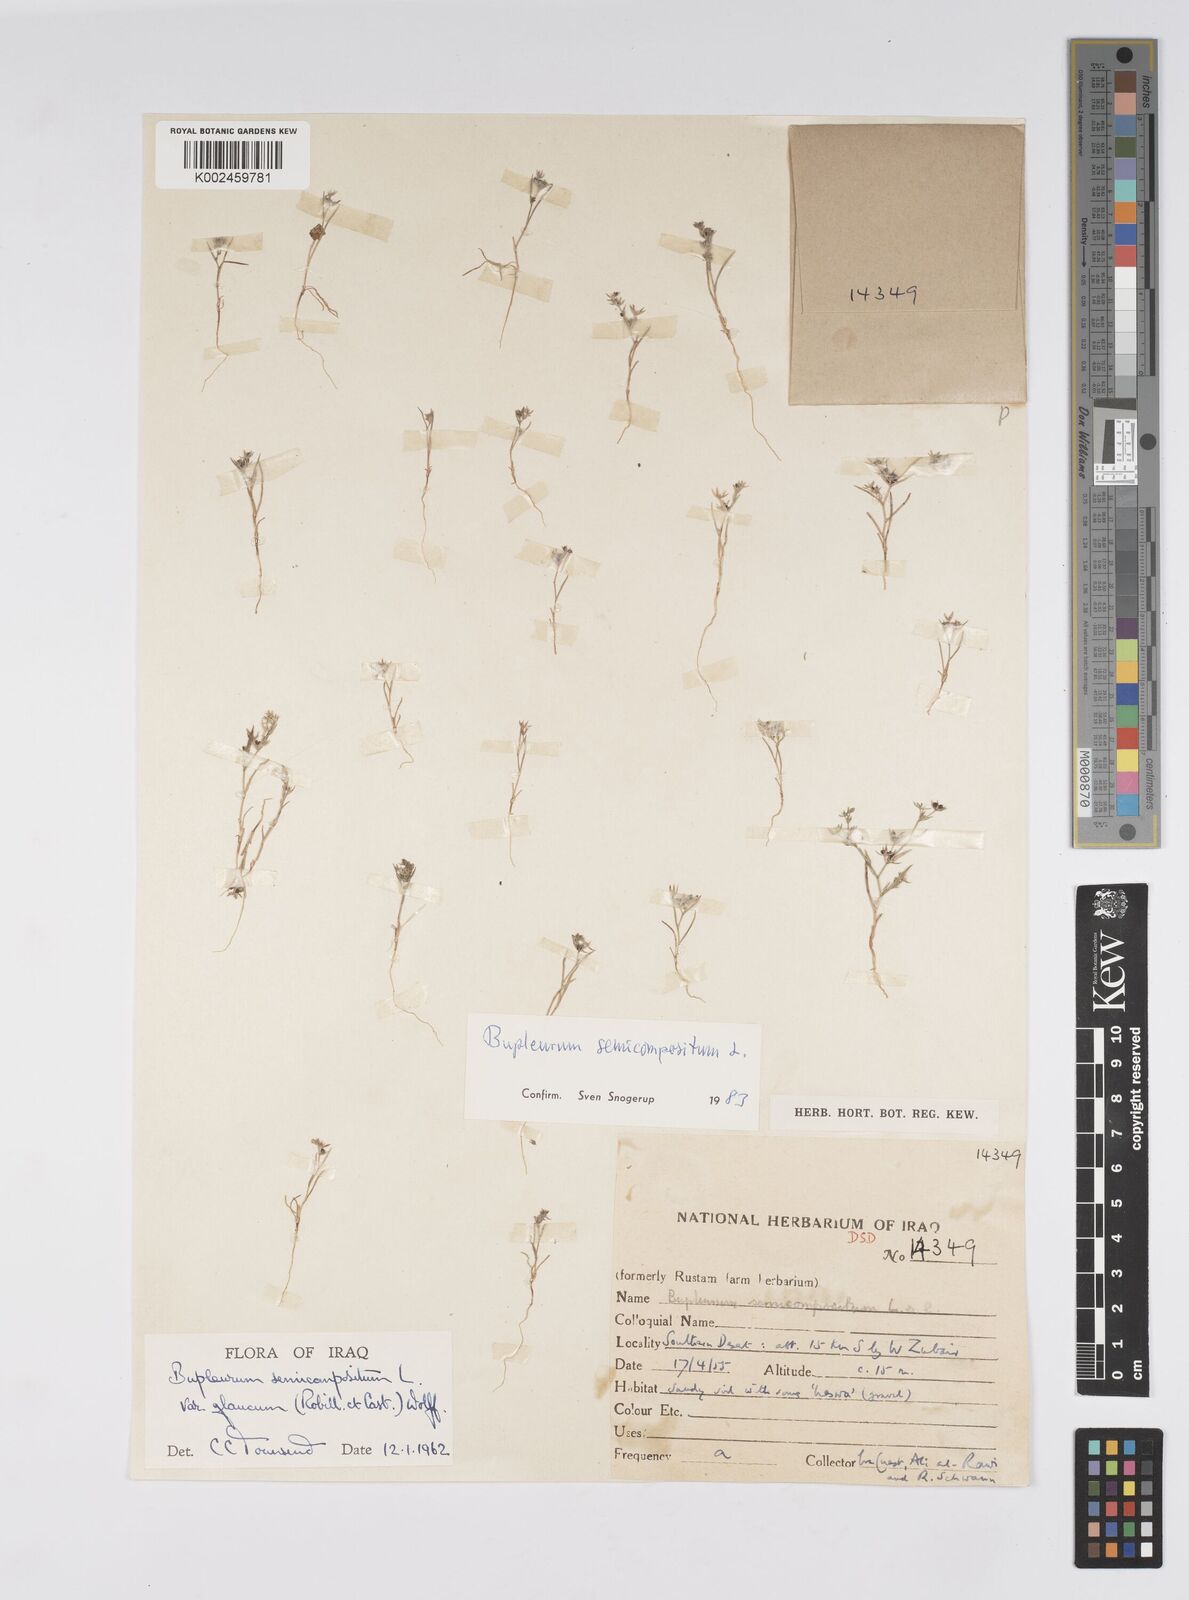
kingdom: Plantae
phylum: Tracheophyta
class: Magnoliopsida
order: Apiales
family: Apiaceae
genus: Bupleurum
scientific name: Bupleurum semicompositum
